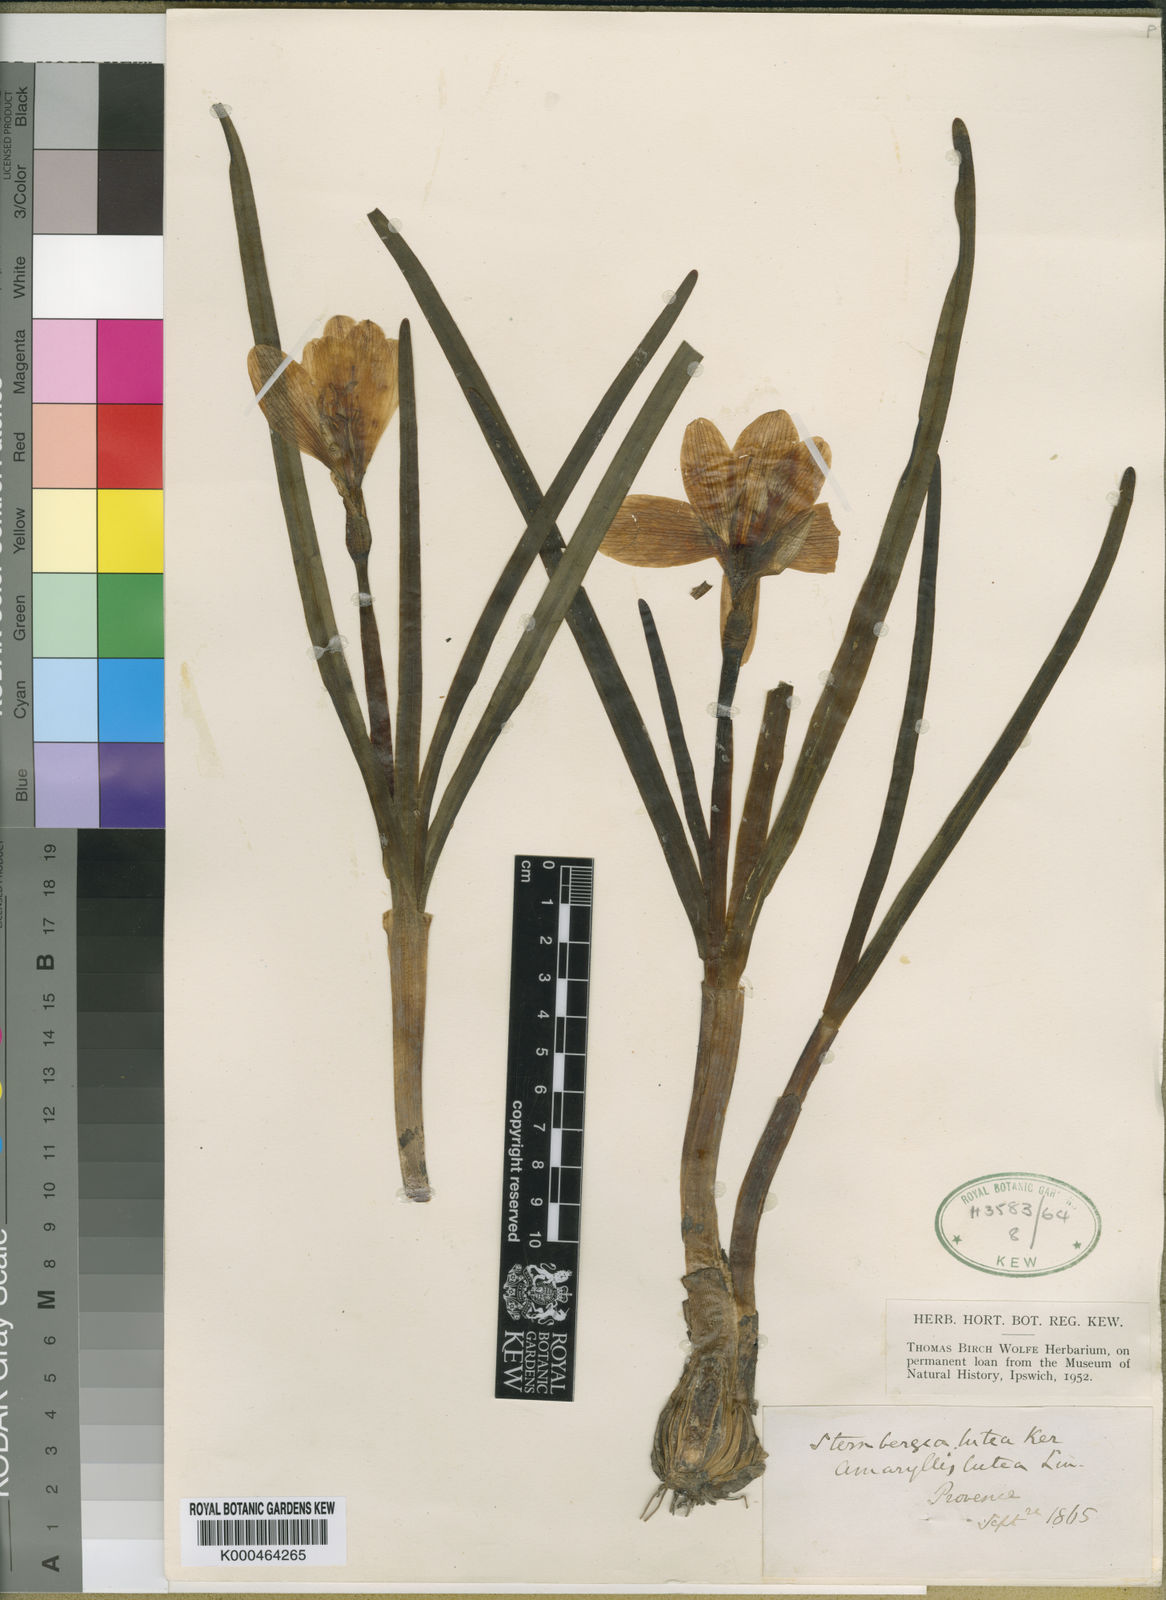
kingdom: Plantae
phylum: Tracheophyta
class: Liliopsida
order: Asparagales
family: Amaryllidaceae
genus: Sternbergia
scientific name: Sternbergia
